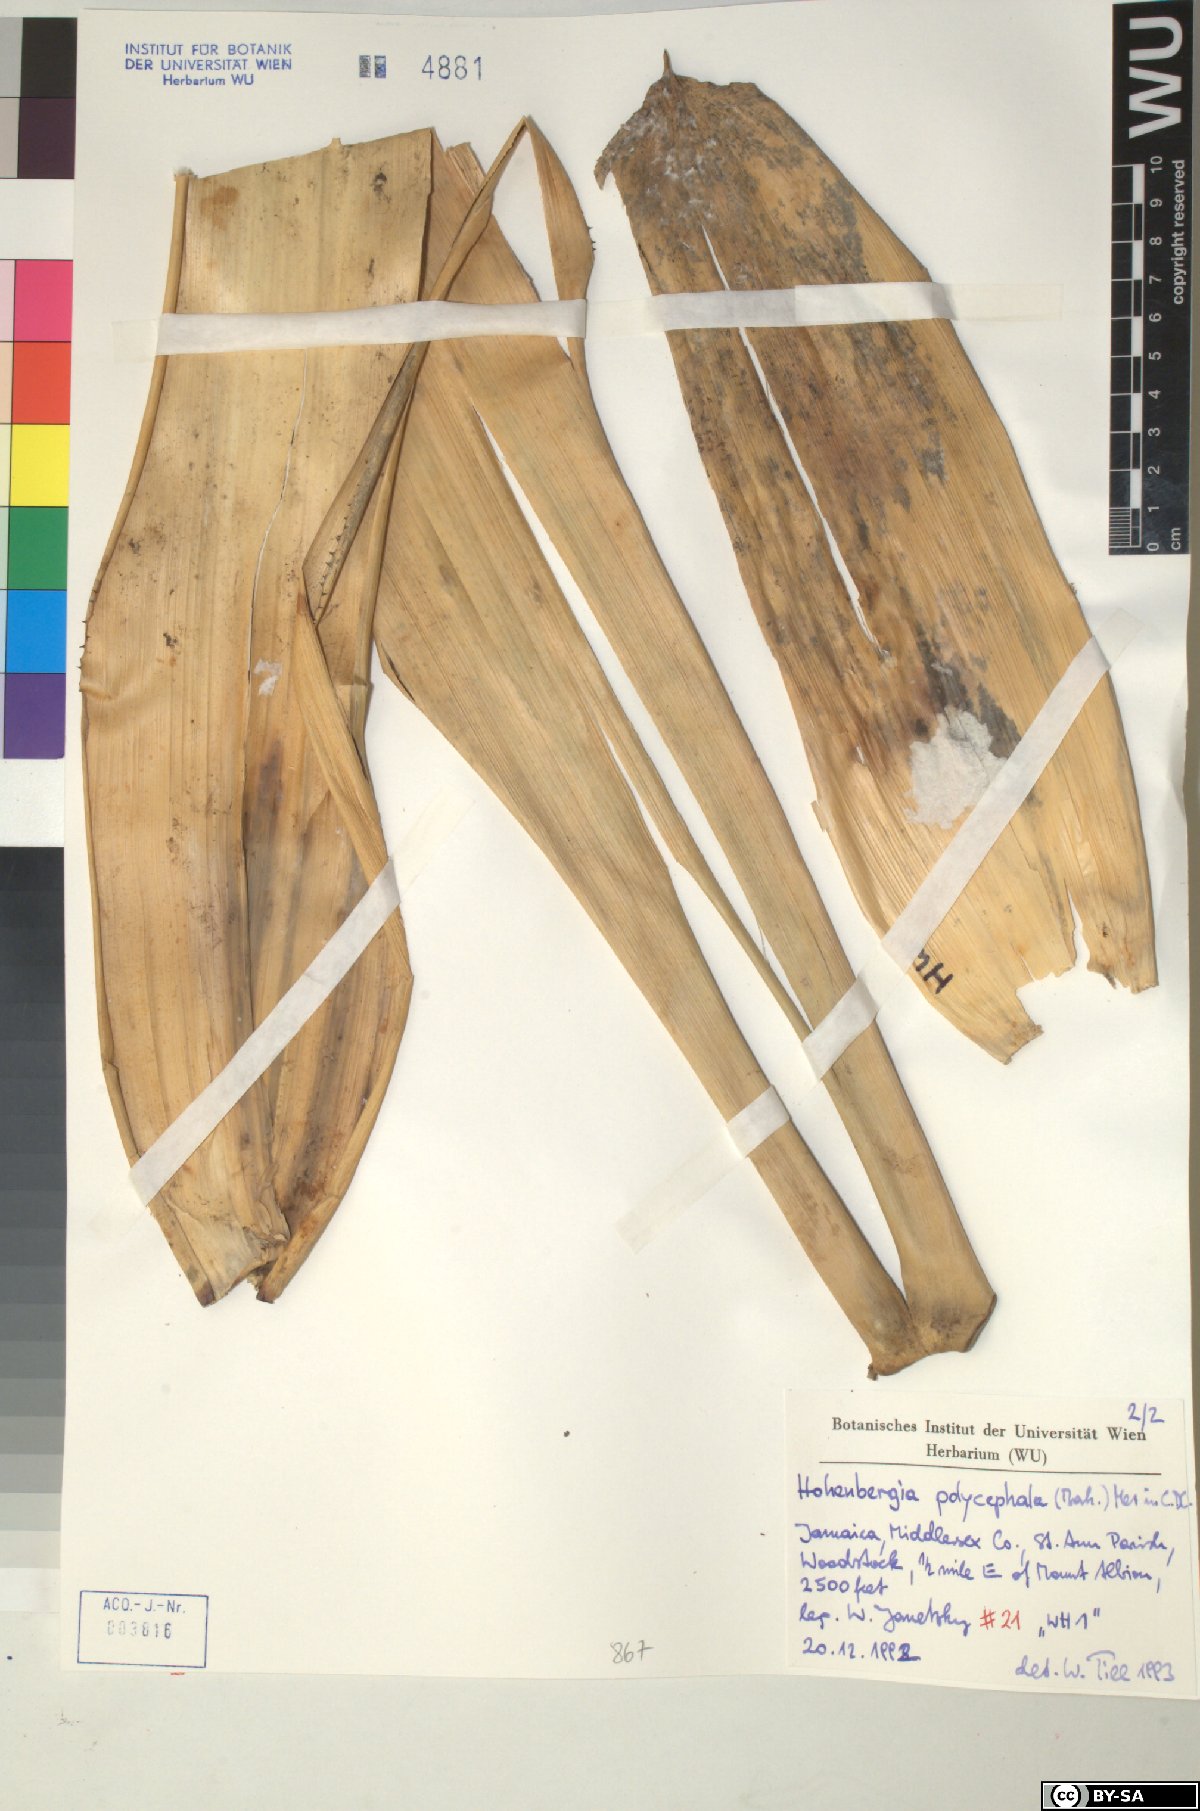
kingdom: Plantae
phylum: Tracheophyta
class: Liliopsida
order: Poales
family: Bromeliaceae
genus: Wittmackia
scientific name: Wittmackia polycephala
